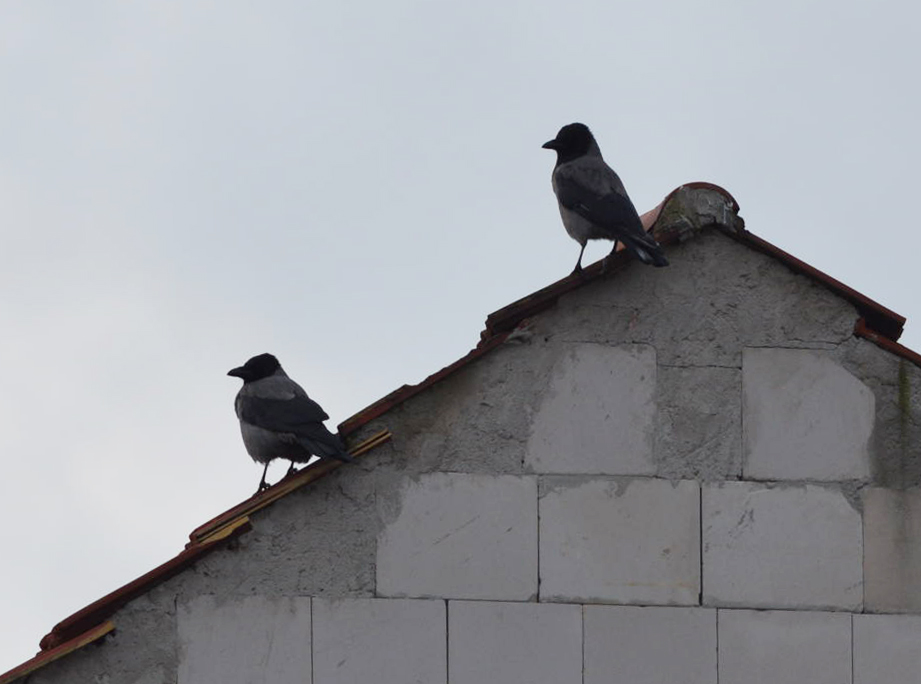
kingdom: Animalia
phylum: Chordata
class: Aves
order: Passeriformes
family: Corvidae
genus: Corvus
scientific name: Corvus cornix
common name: Hooded crow
